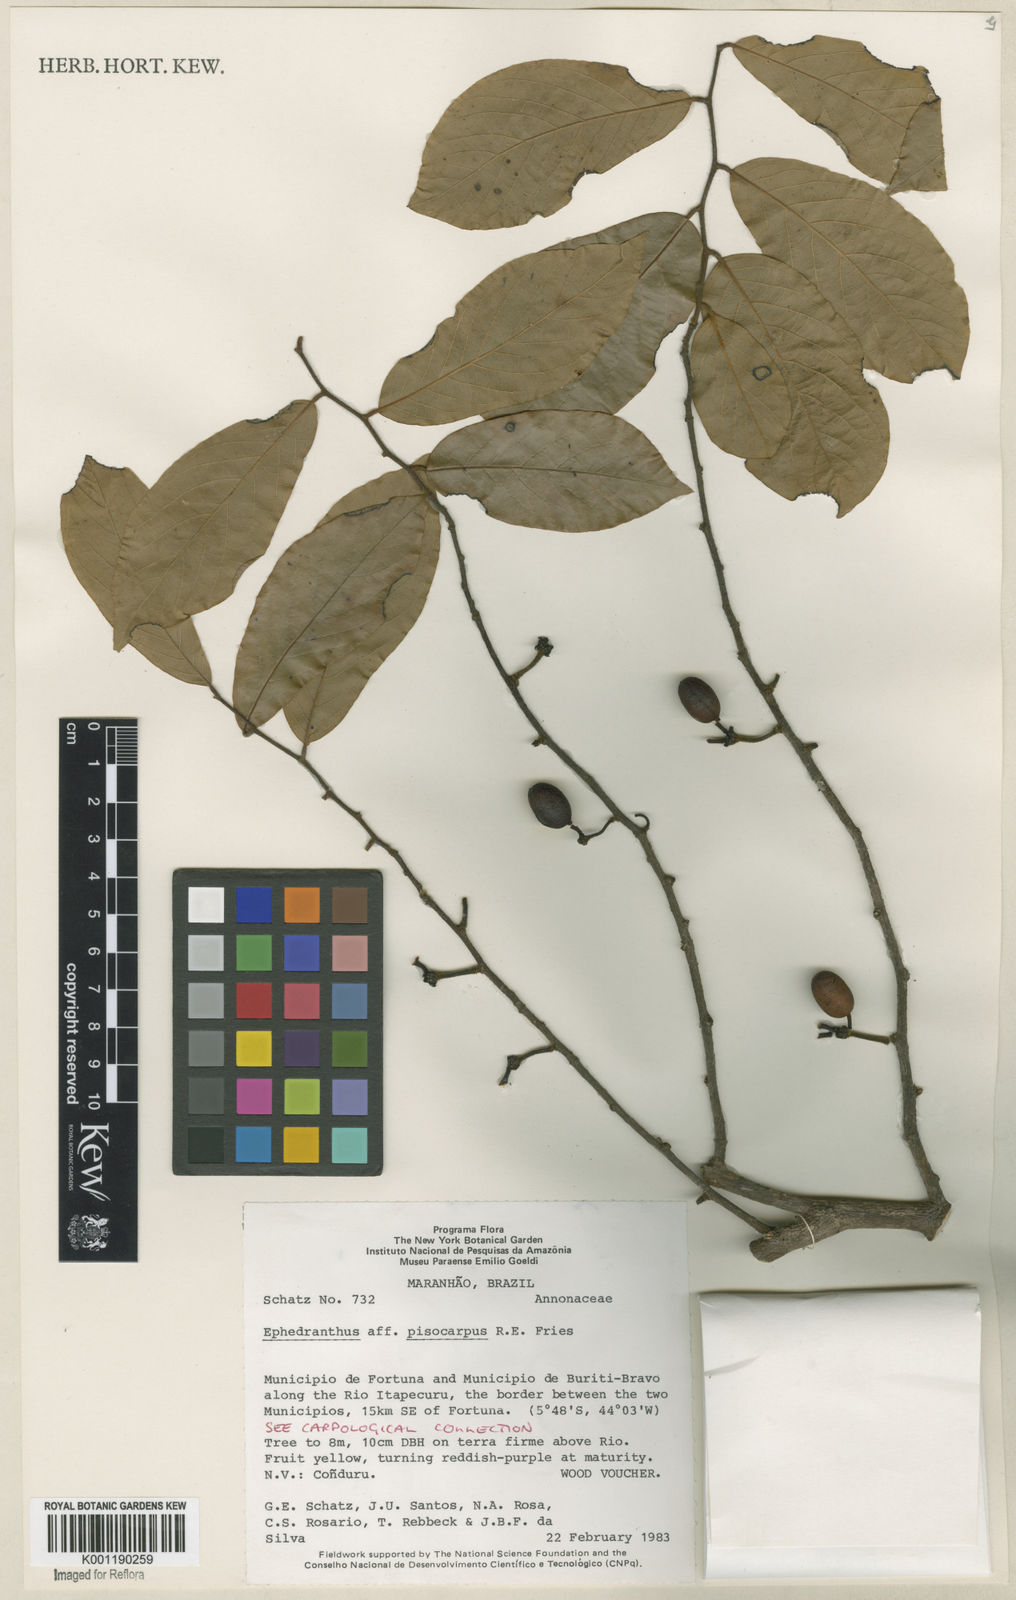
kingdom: Plantae
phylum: Tracheophyta
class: Magnoliopsida
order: Magnoliales
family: Annonaceae
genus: Ephedranthus
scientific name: Ephedranthus pisocarpus
